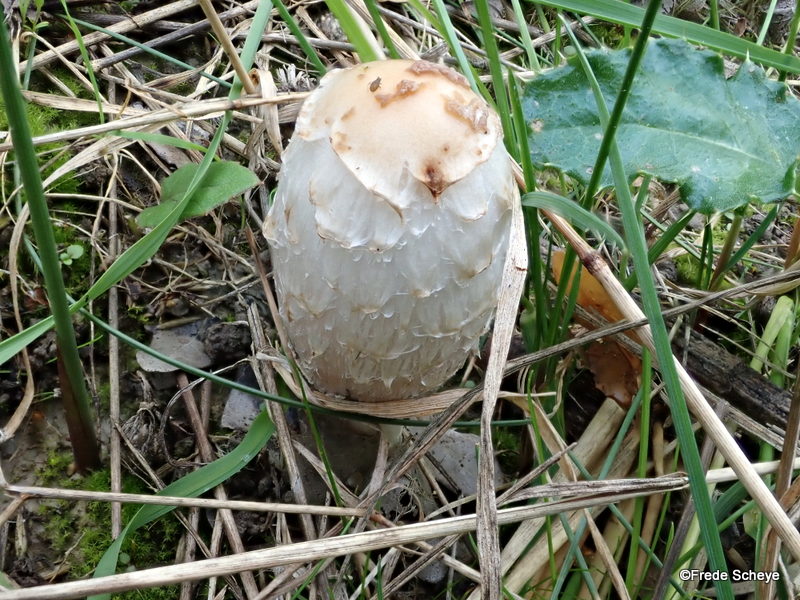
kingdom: Fungi
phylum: Basidiomycota
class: Agaricomycetes
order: Agaricales
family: Agaricaceae
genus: Coprinus
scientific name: Coprinus comatus
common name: stor parykhat
